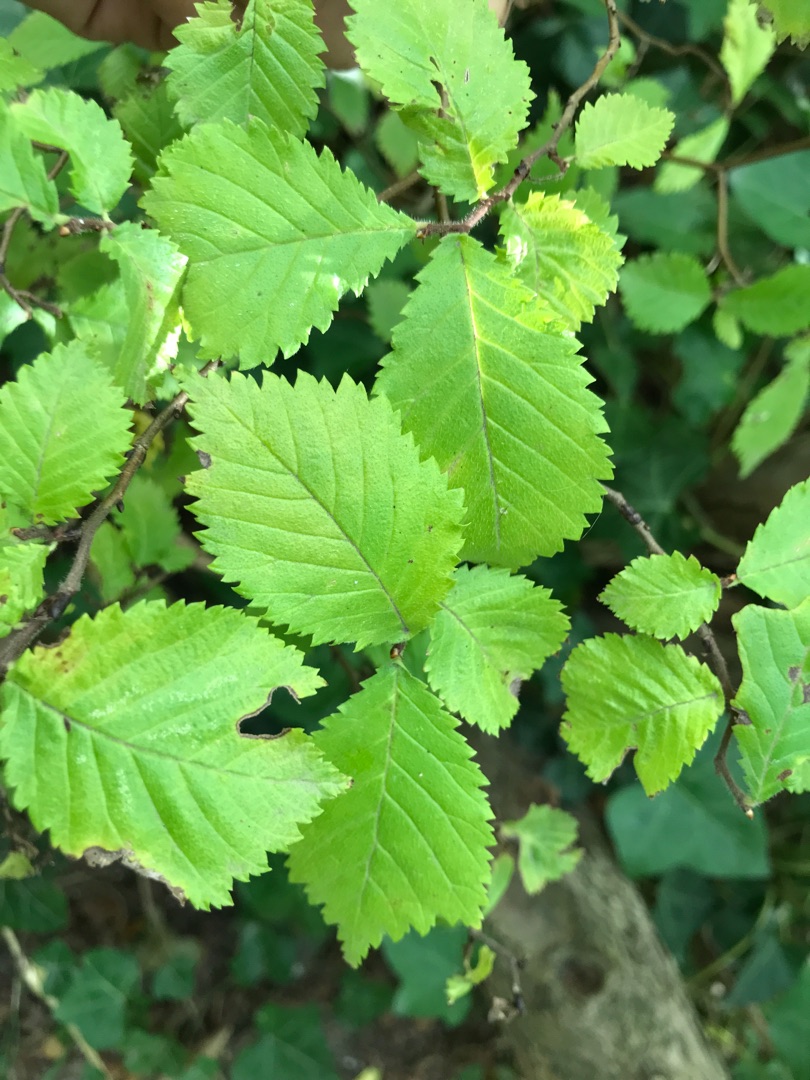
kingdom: Plantae
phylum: Tracheophyta
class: Magnoliopsida
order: Rosales
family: Ulmaceae
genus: Ulmus
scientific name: Ulmus glabra
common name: Skov-elm/storbladet elm
